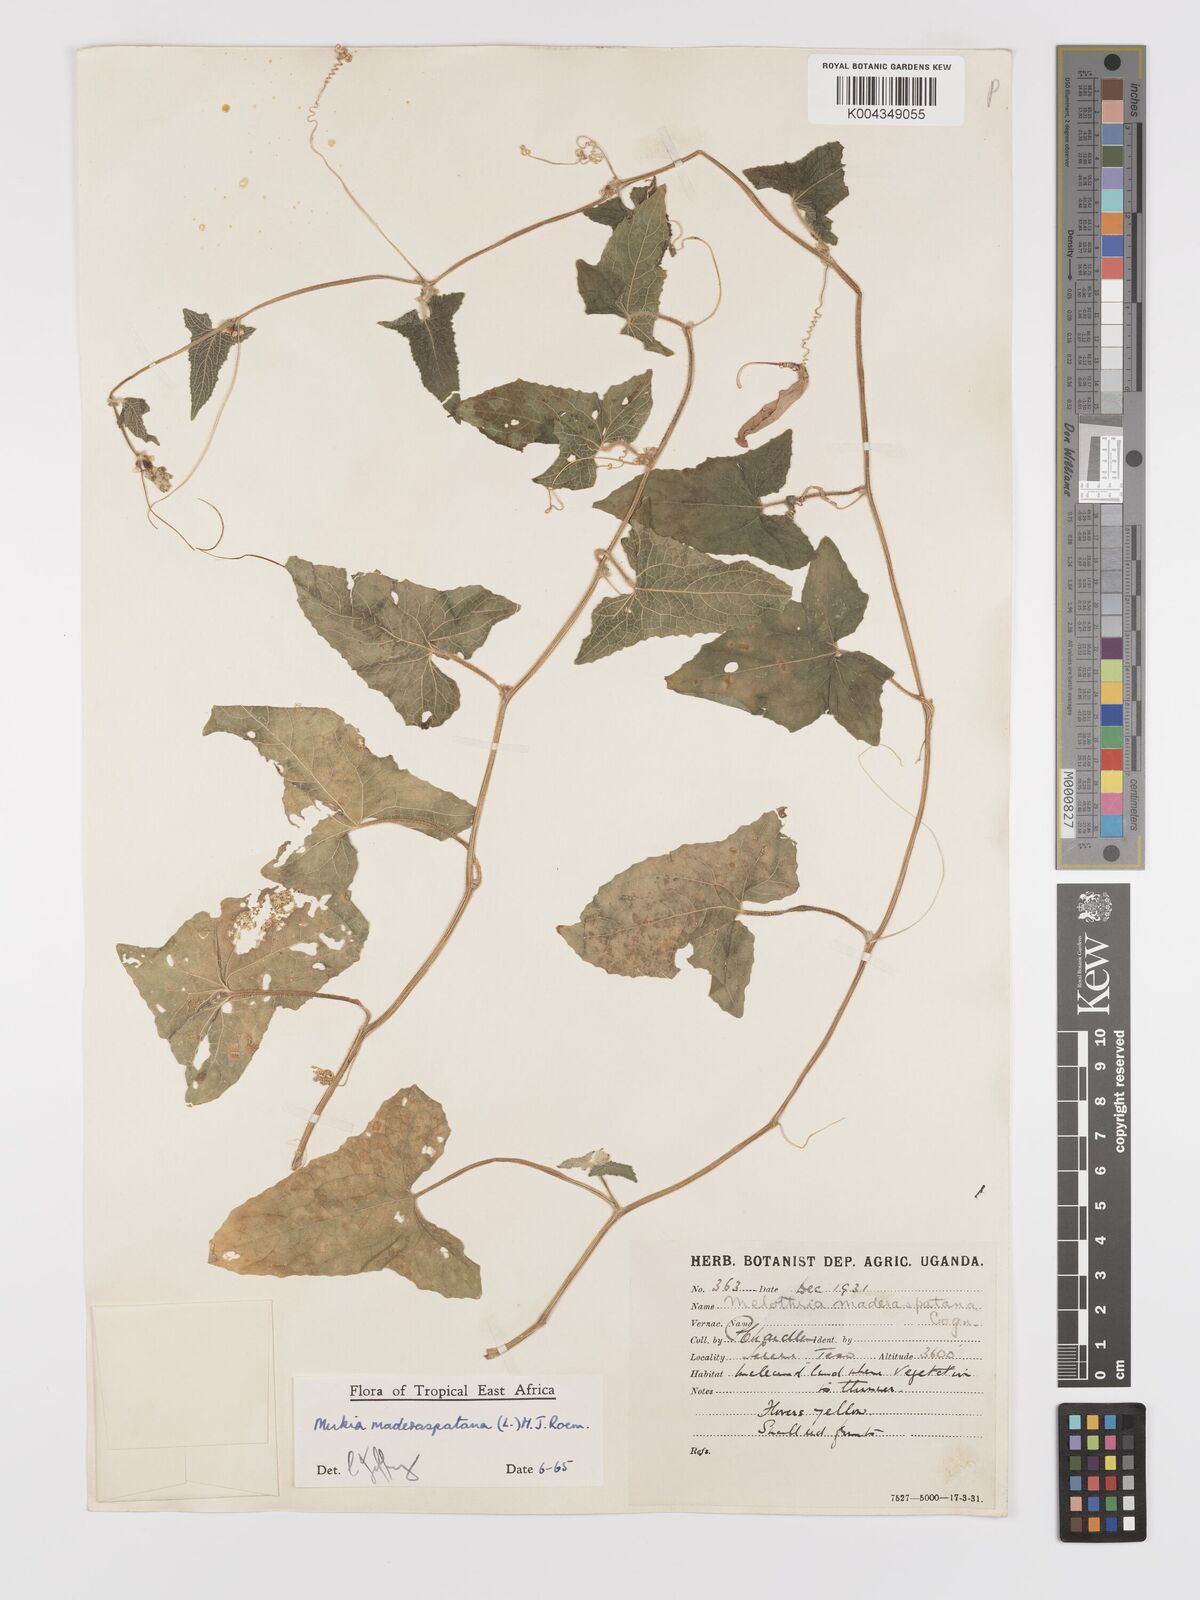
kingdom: Plantae
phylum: Tracheophyta
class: Magnoliopsida
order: Cucurbitales
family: Cucurbitaceae
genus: Cucumis
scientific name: Cucumis maderaspatanus
